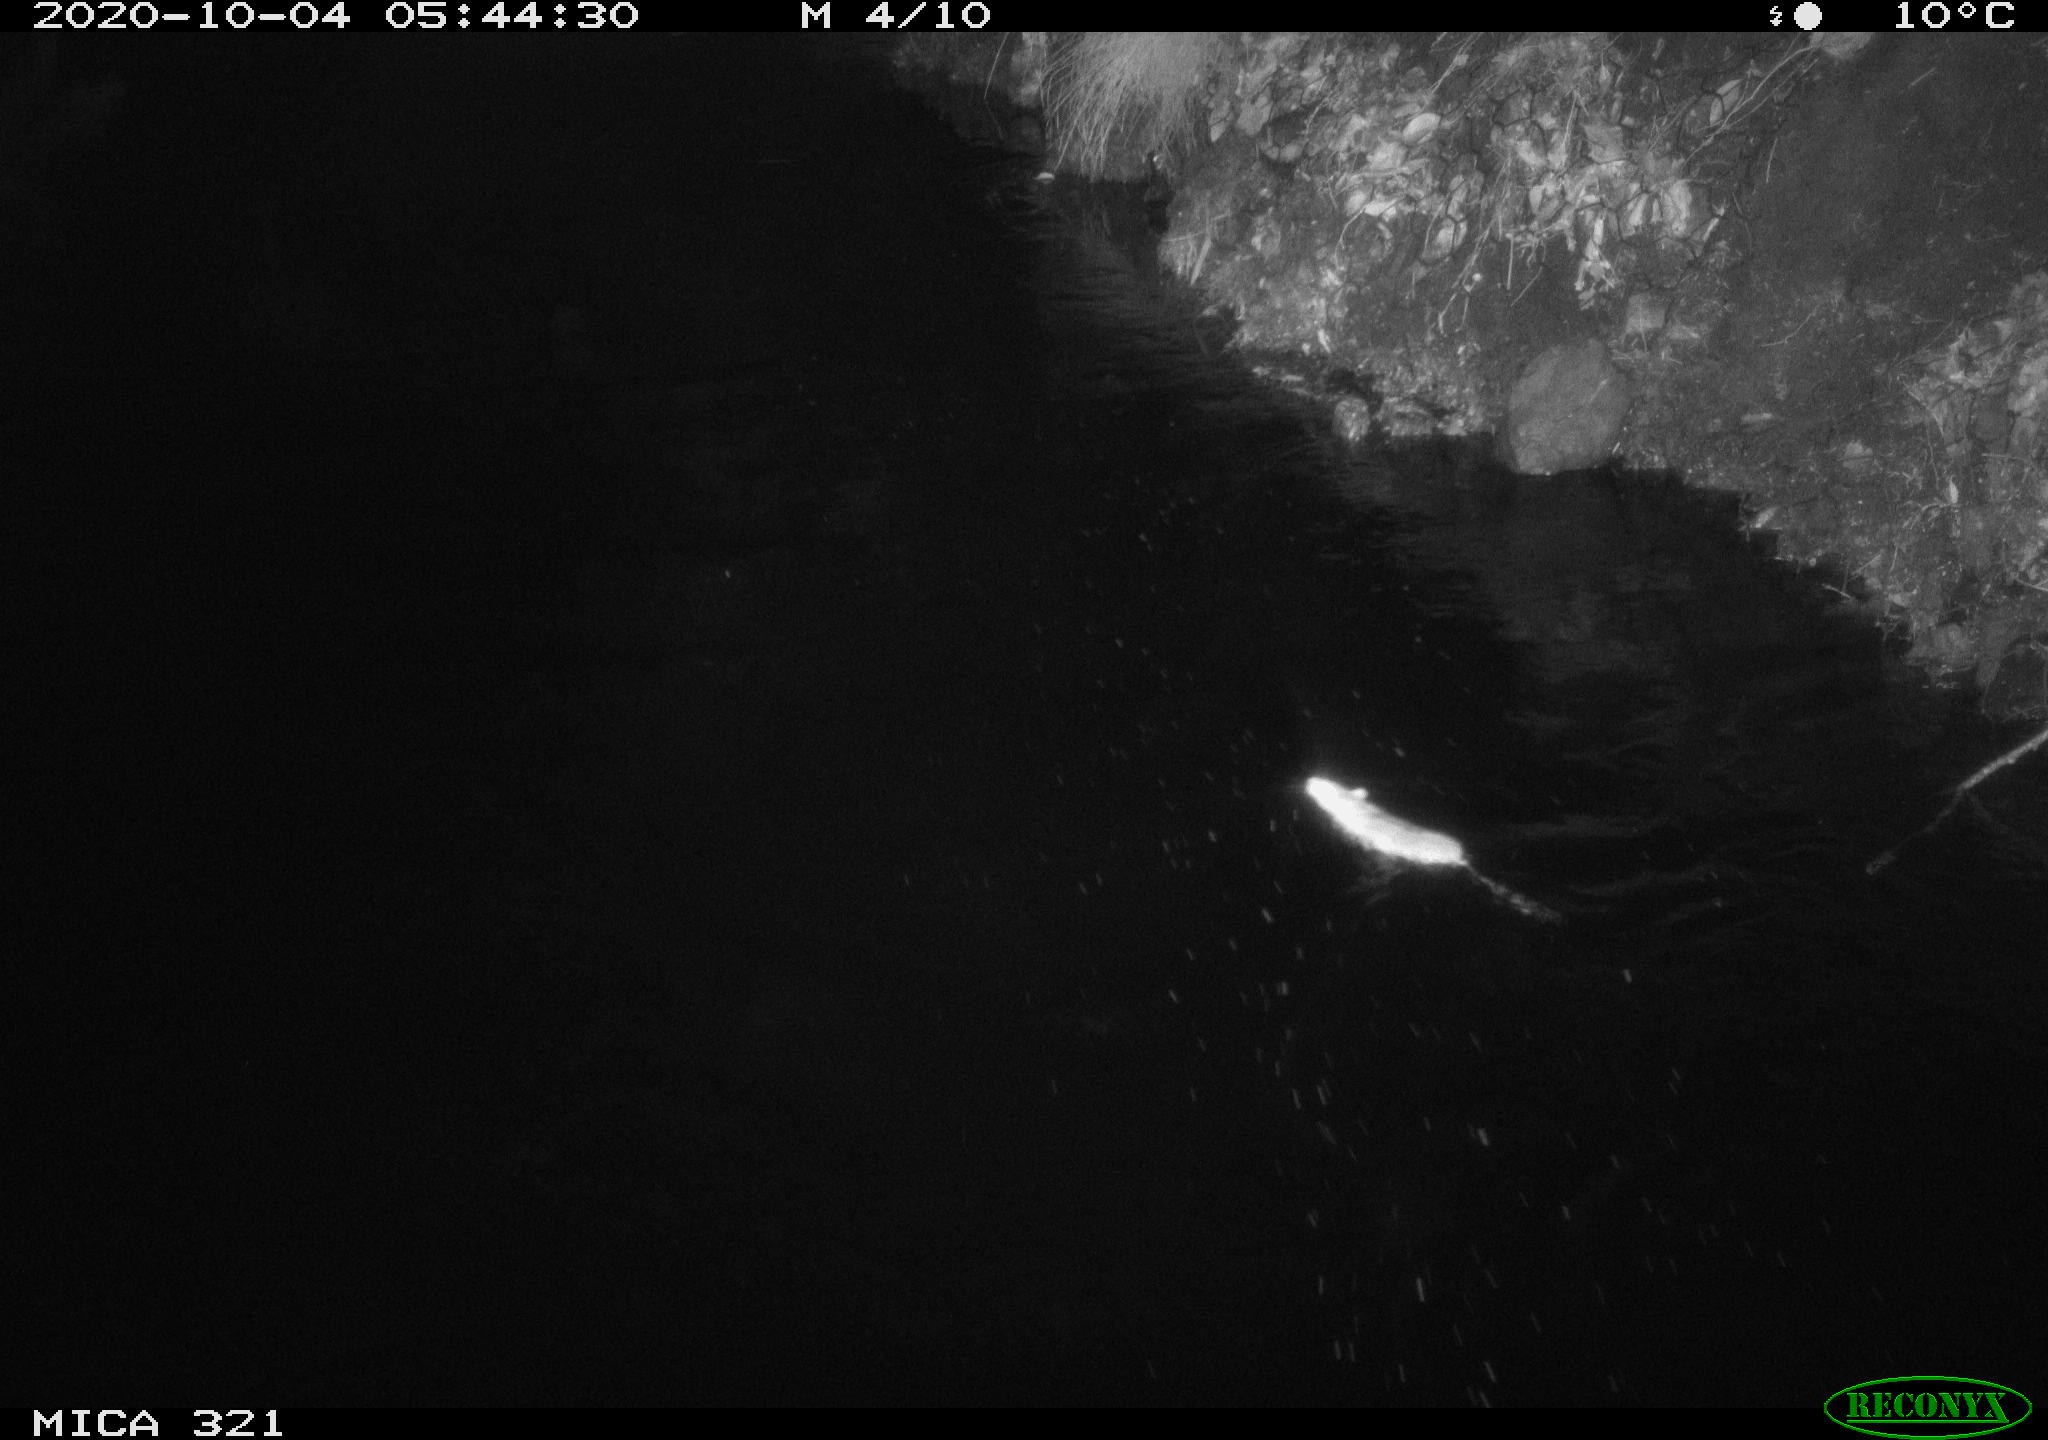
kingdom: Animalia
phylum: Chordata
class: Mammalia
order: Rodentia
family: Muridae
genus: Rattus
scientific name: Rattus norvegicus
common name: Brown rat
